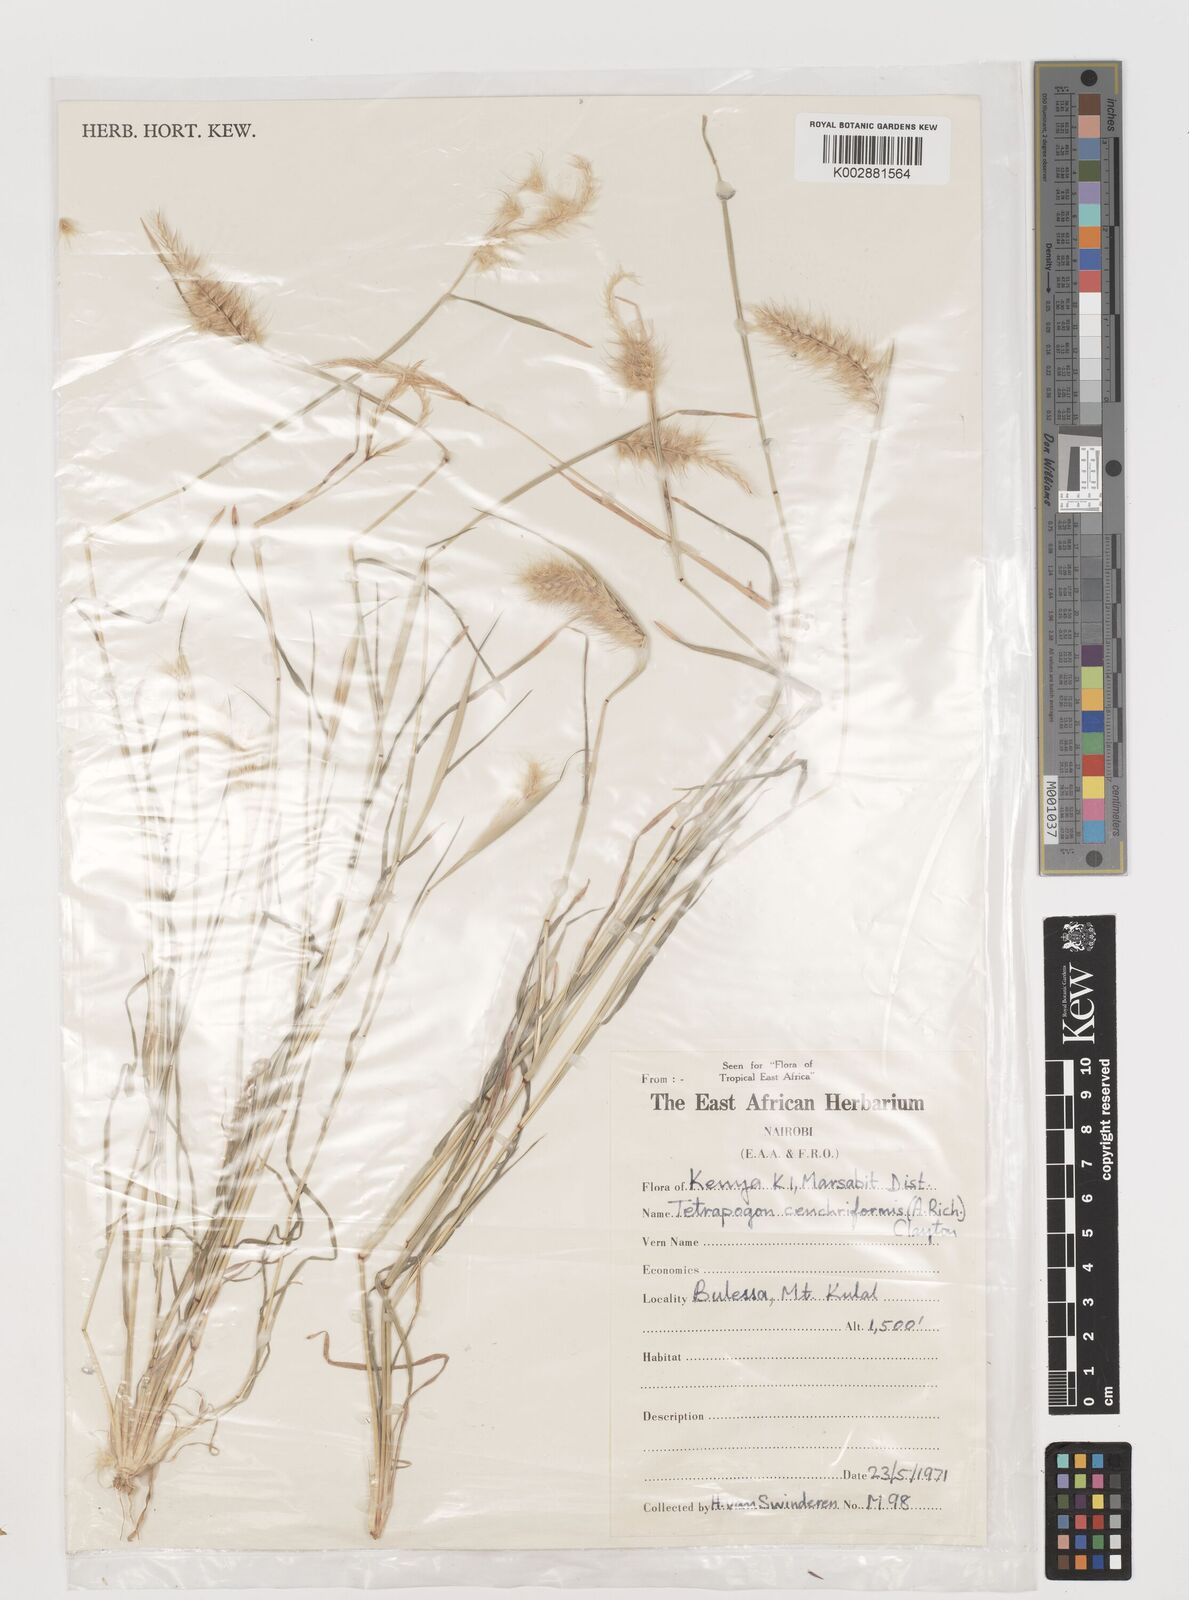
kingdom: Plantae
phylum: Tracheophyta
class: Liliopsida
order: Poales
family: Poaceae
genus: Tetrapogon
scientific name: Tetrapogon cenchriformis
